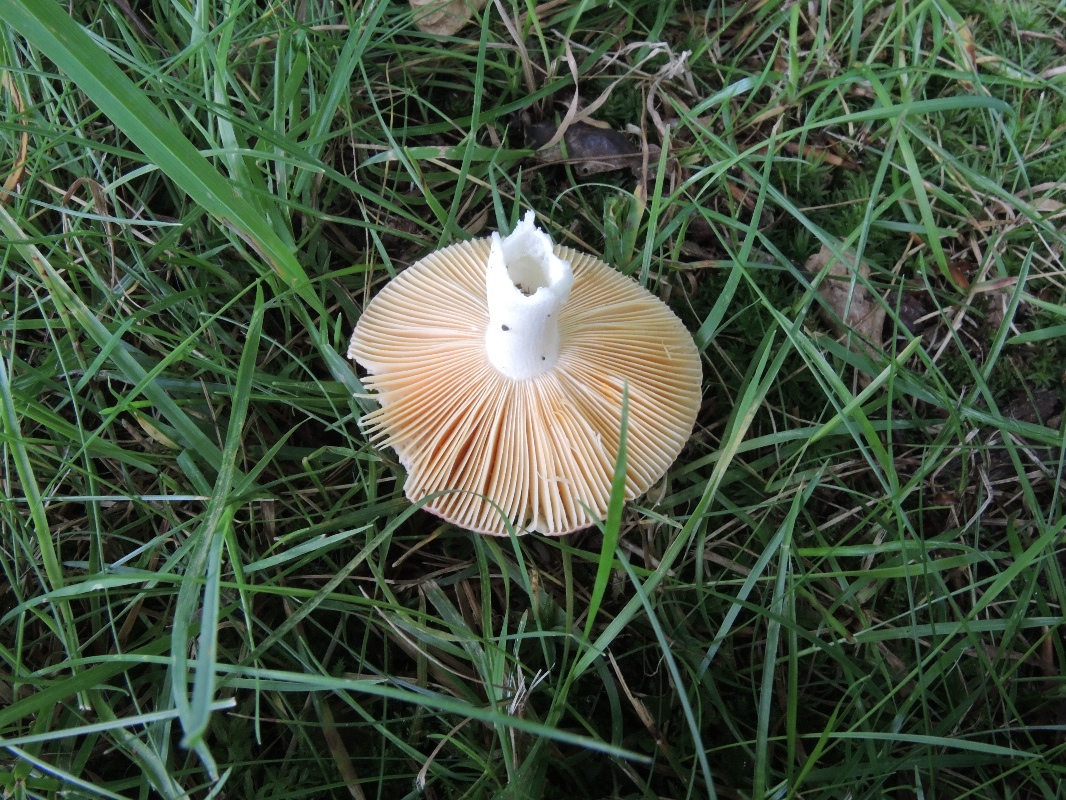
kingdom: Fungi
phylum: Basidiomycota
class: Agaricomycetes
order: Russulales
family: Russulaceae
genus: Russula
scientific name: Russula risigallina
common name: abrikos-skørhat
